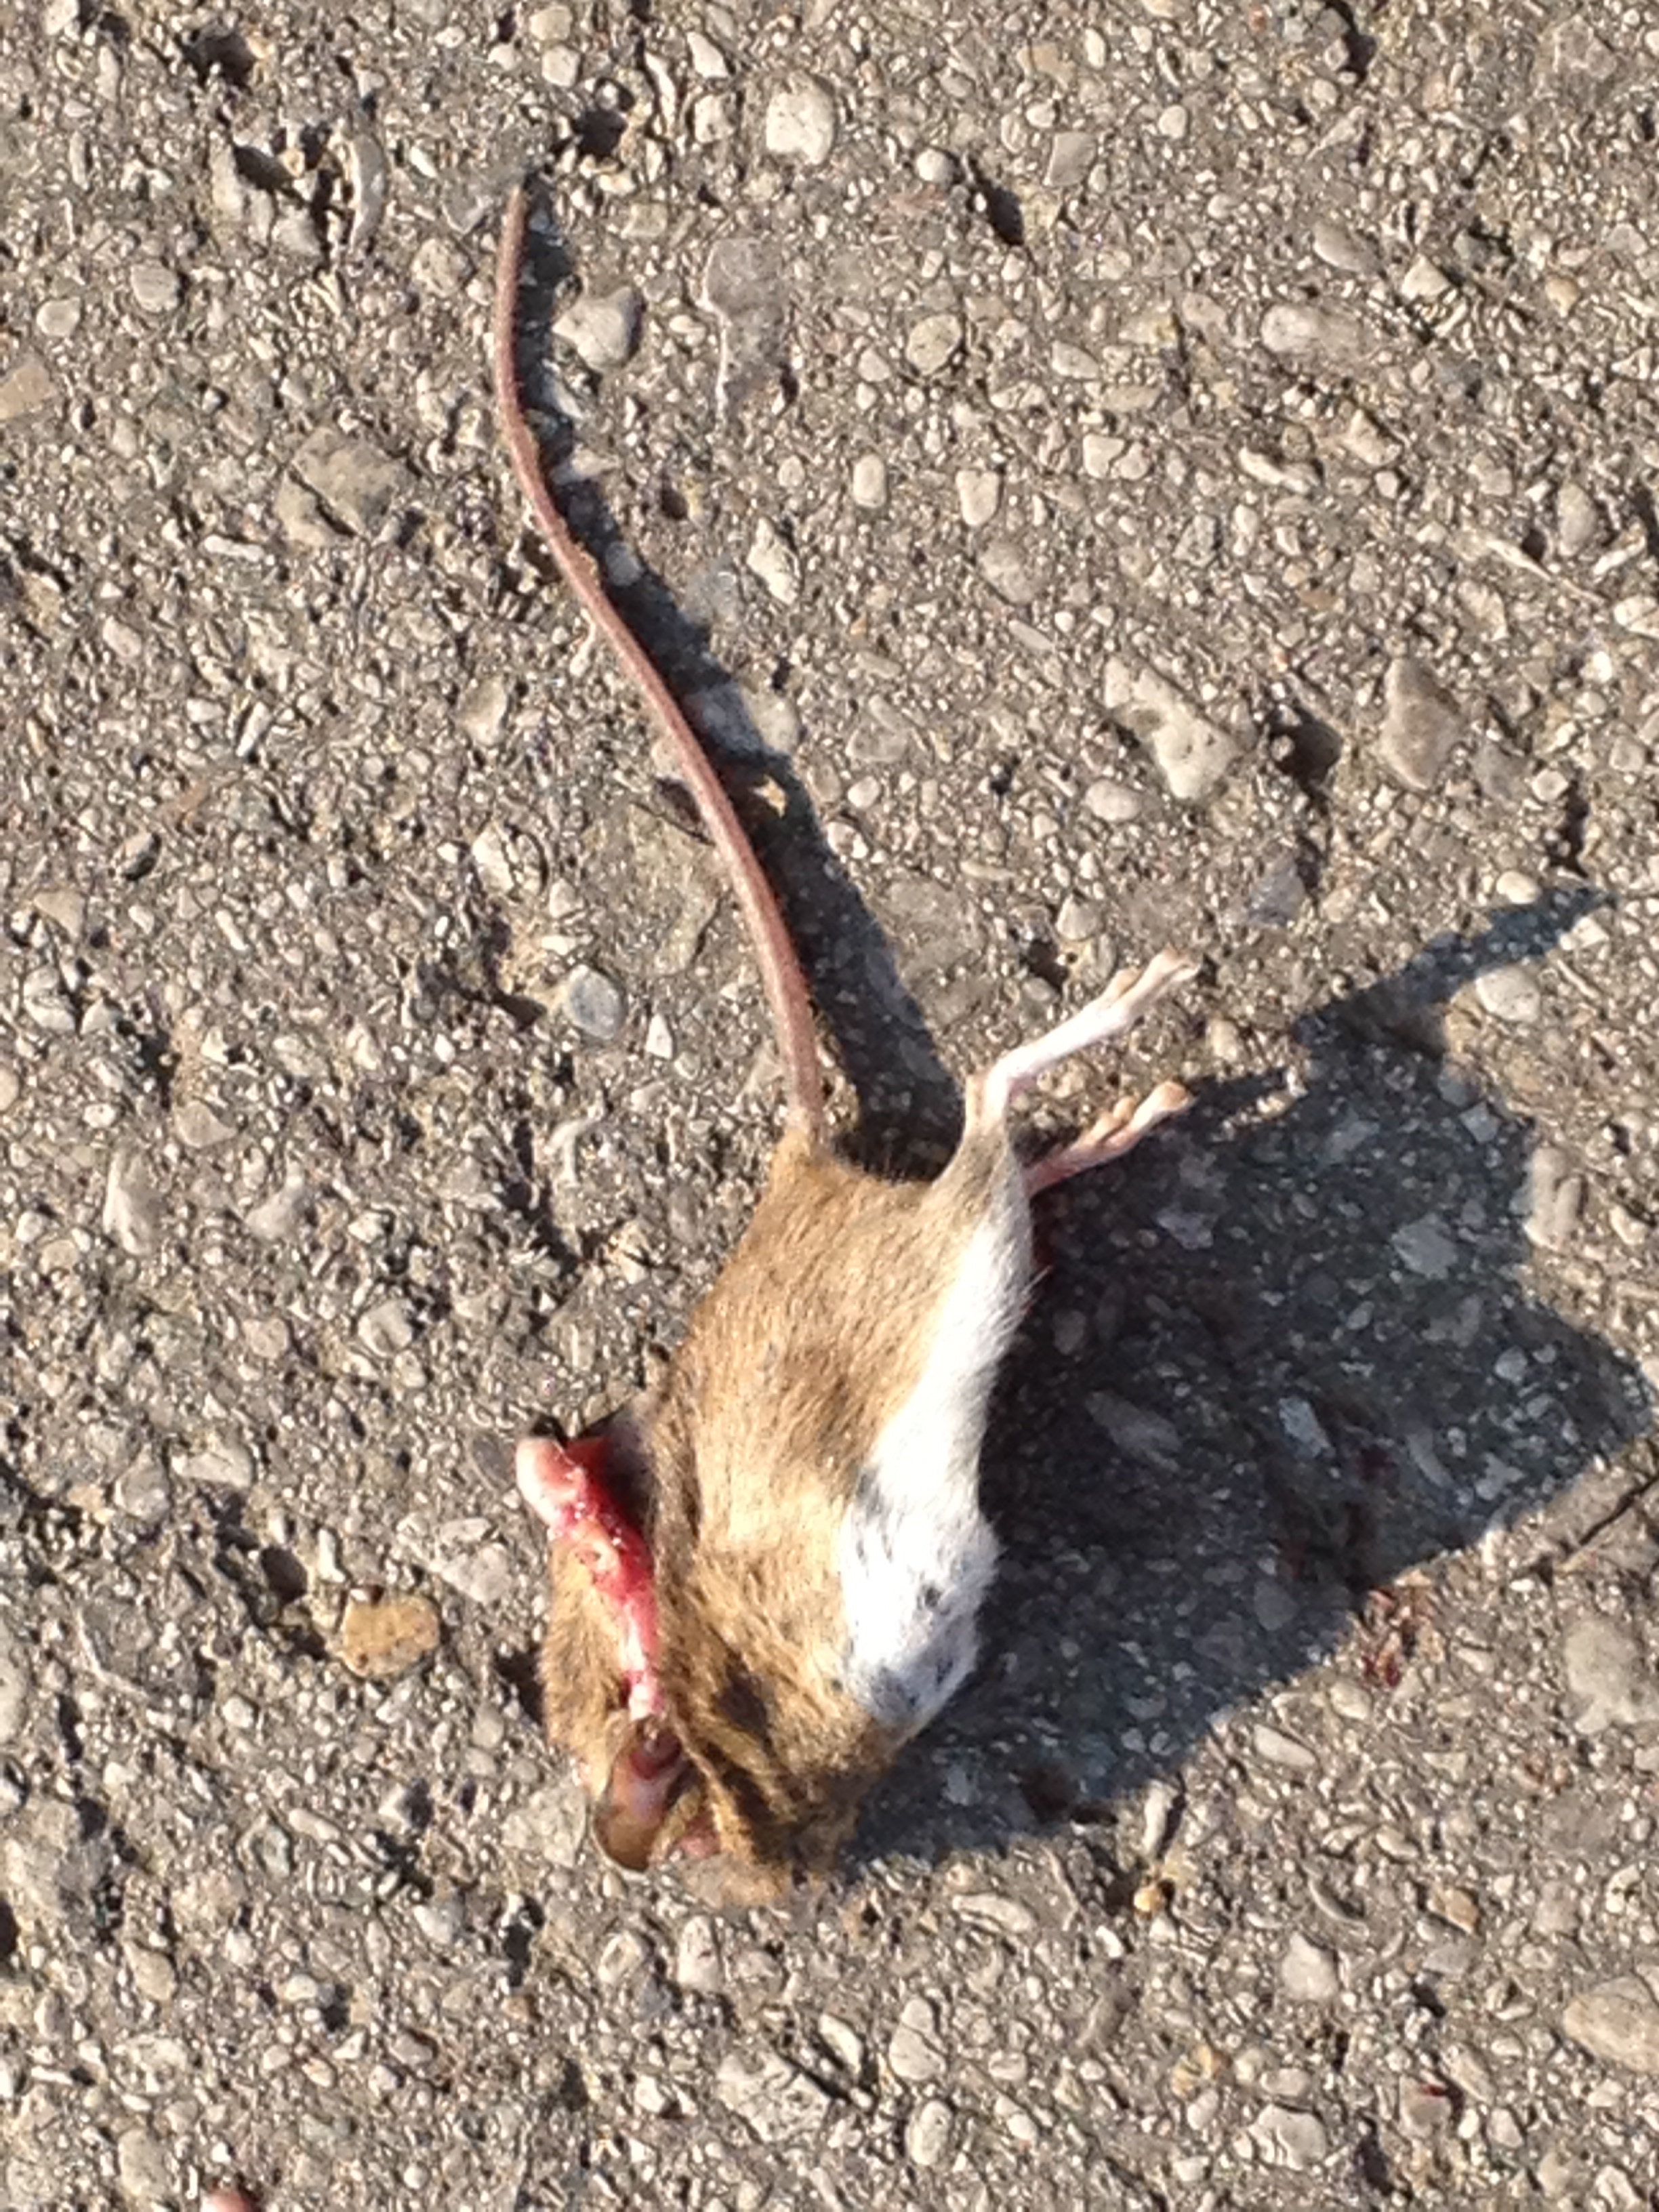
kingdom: Animalia
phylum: Chordata
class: Mammalia
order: Rodentia
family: Muridae
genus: Apodemus
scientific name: Apodemus
